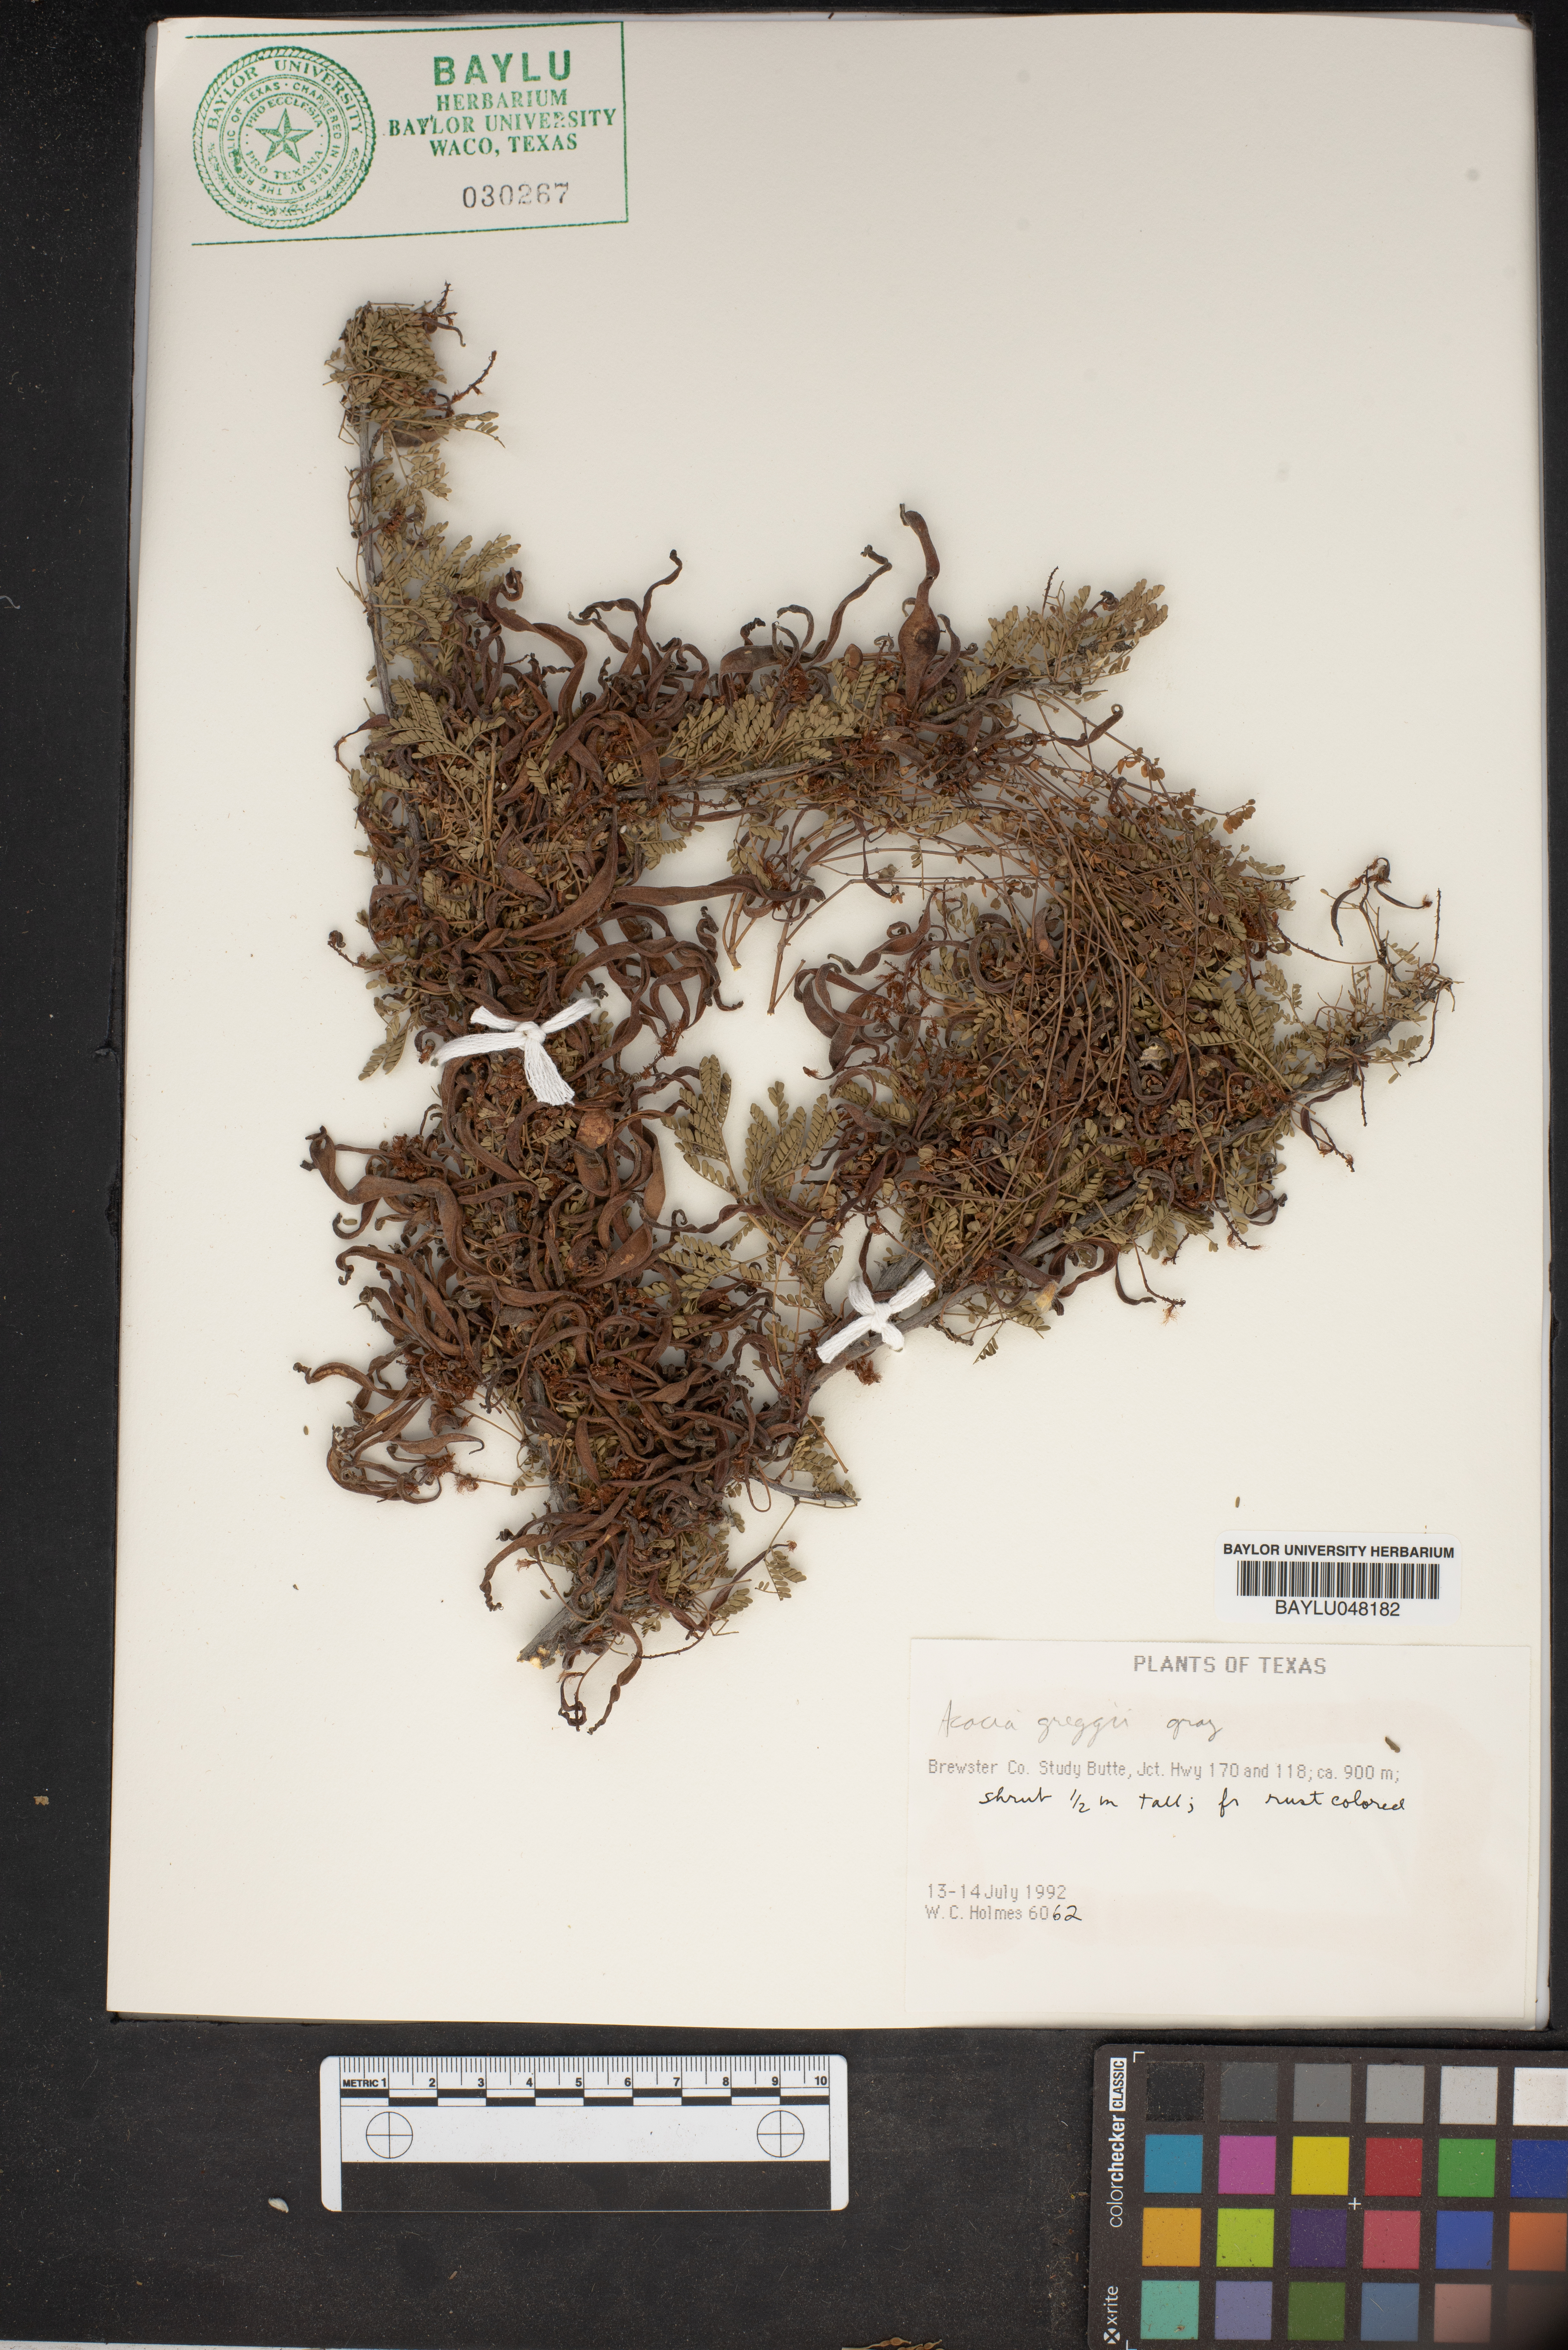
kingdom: Plantae
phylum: Tracheophyta
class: Magnoliopsida
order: Fabales
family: Fabaceae
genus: Senegalia
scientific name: Senegalia greggii
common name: Texas-mimosa
